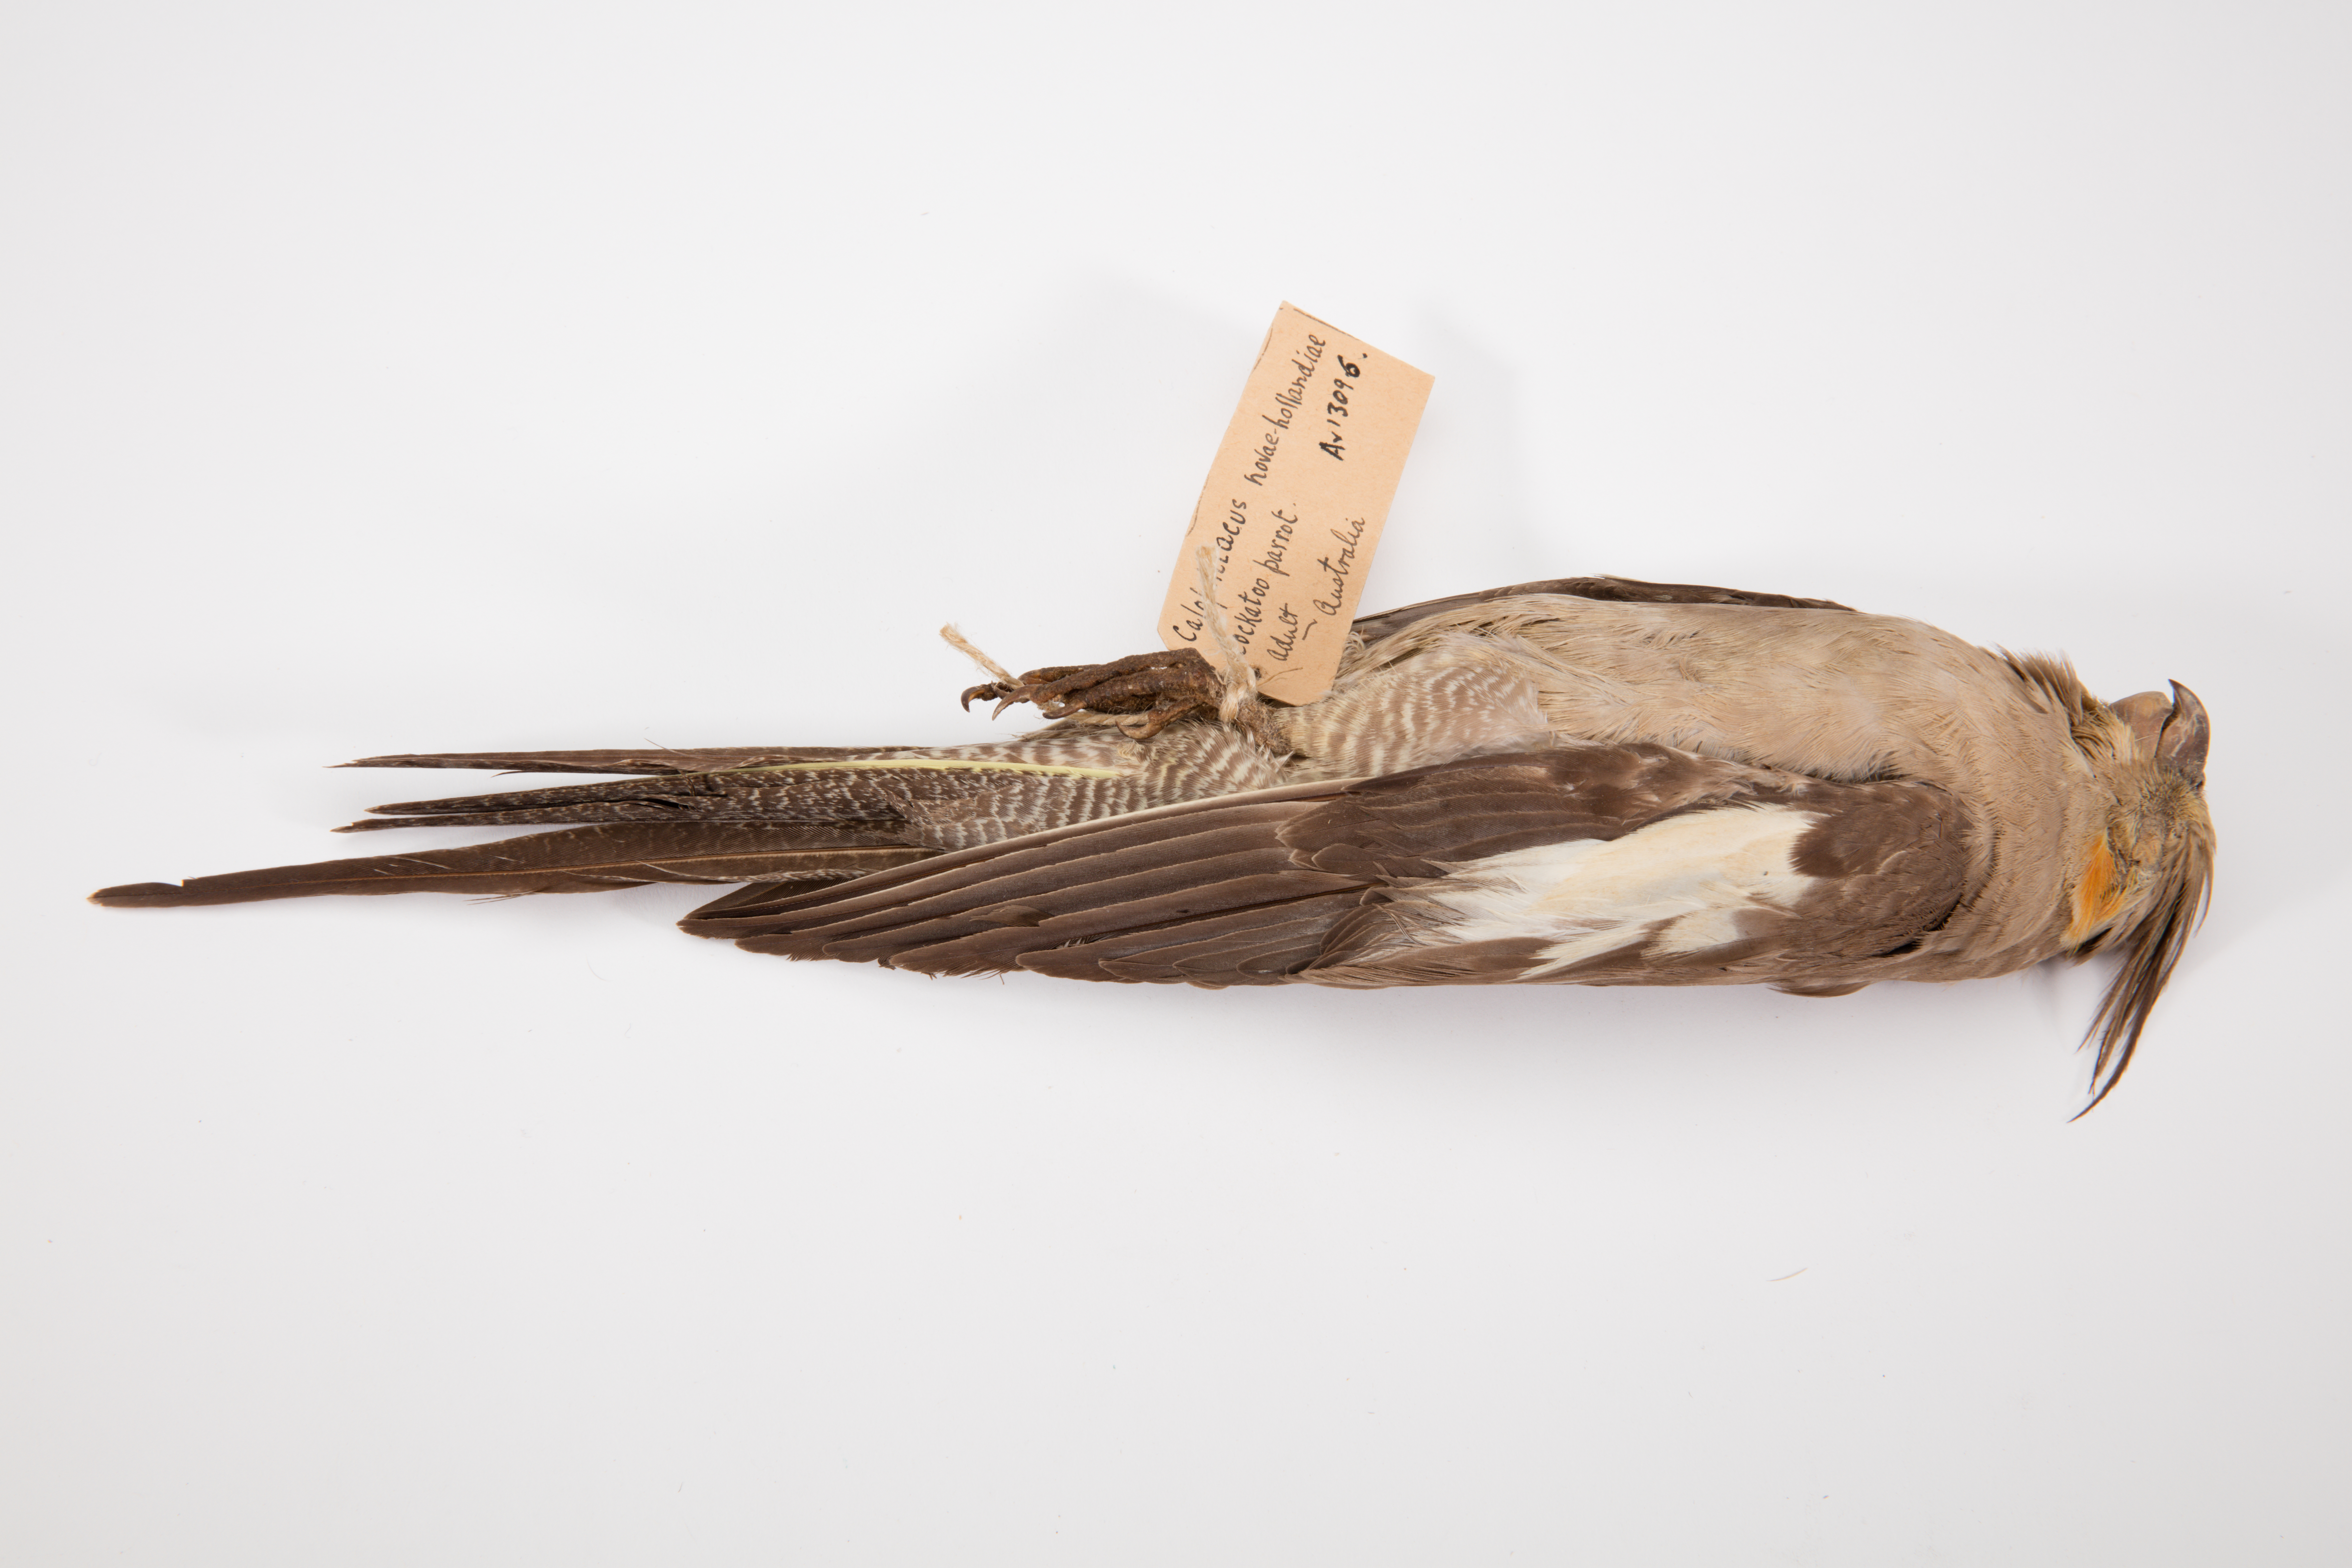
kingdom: Animalia
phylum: Chordata
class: Aves
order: Psittaciformes
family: Psittacidae
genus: Nymphicus
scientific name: Nymphicus hollandicus
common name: Cockatiel
